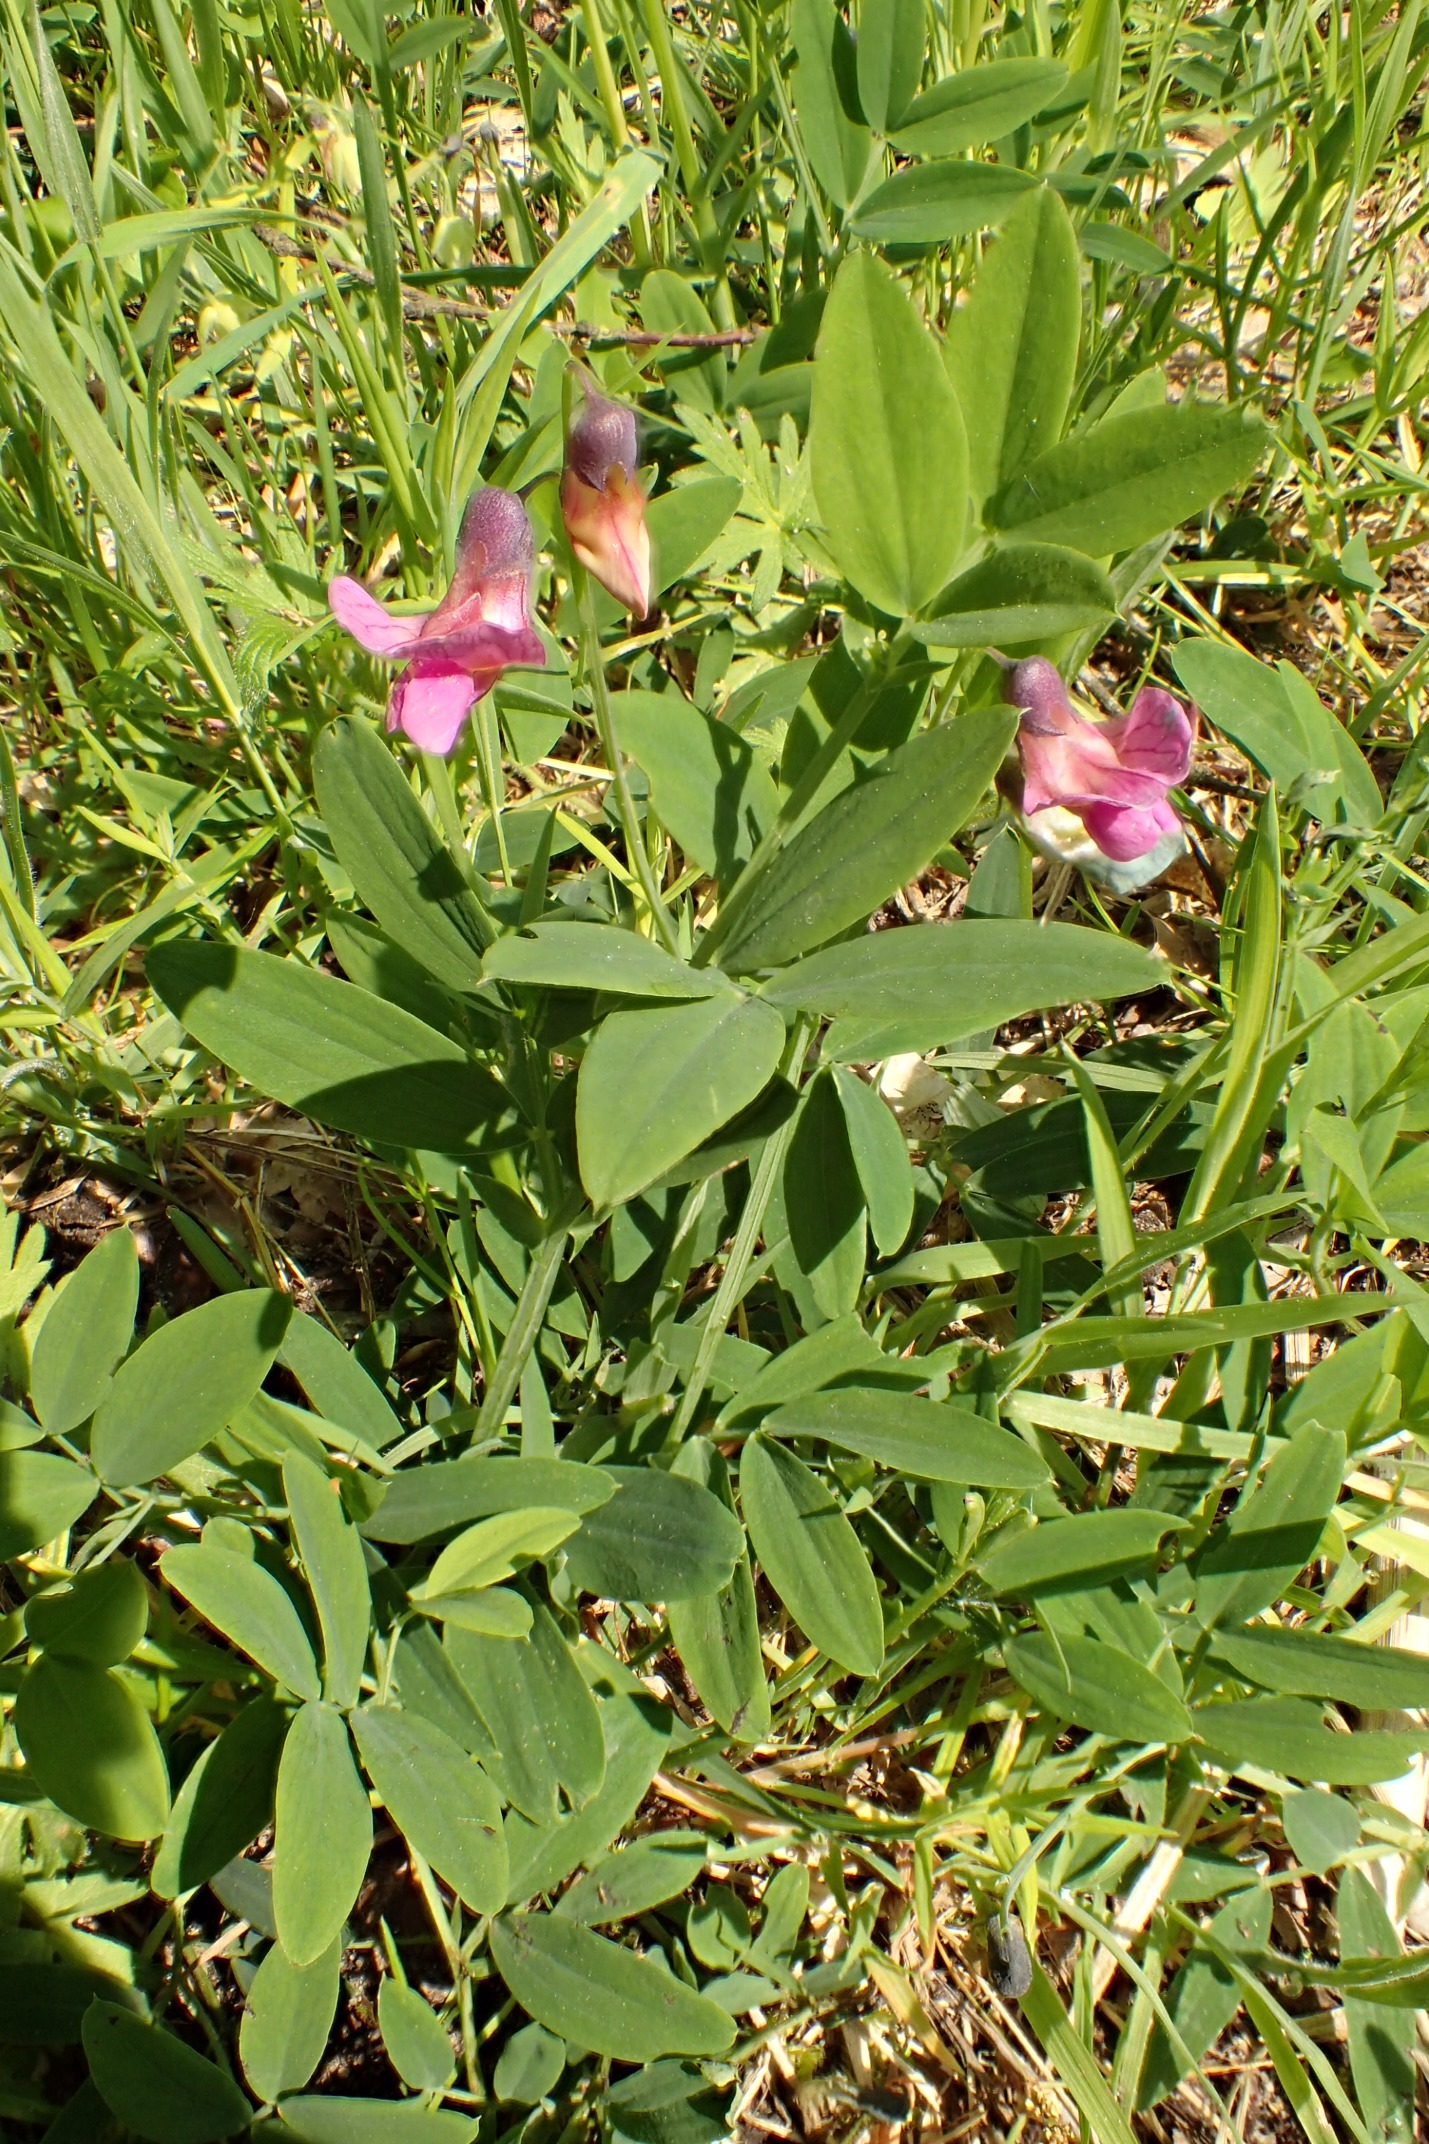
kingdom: Plantae
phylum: Tracheophyta
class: Magnoliopsida
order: Fabales
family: Fabaceae
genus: Lathyrus
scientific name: Lathyrus linifolius
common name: Krat-fladbælg
